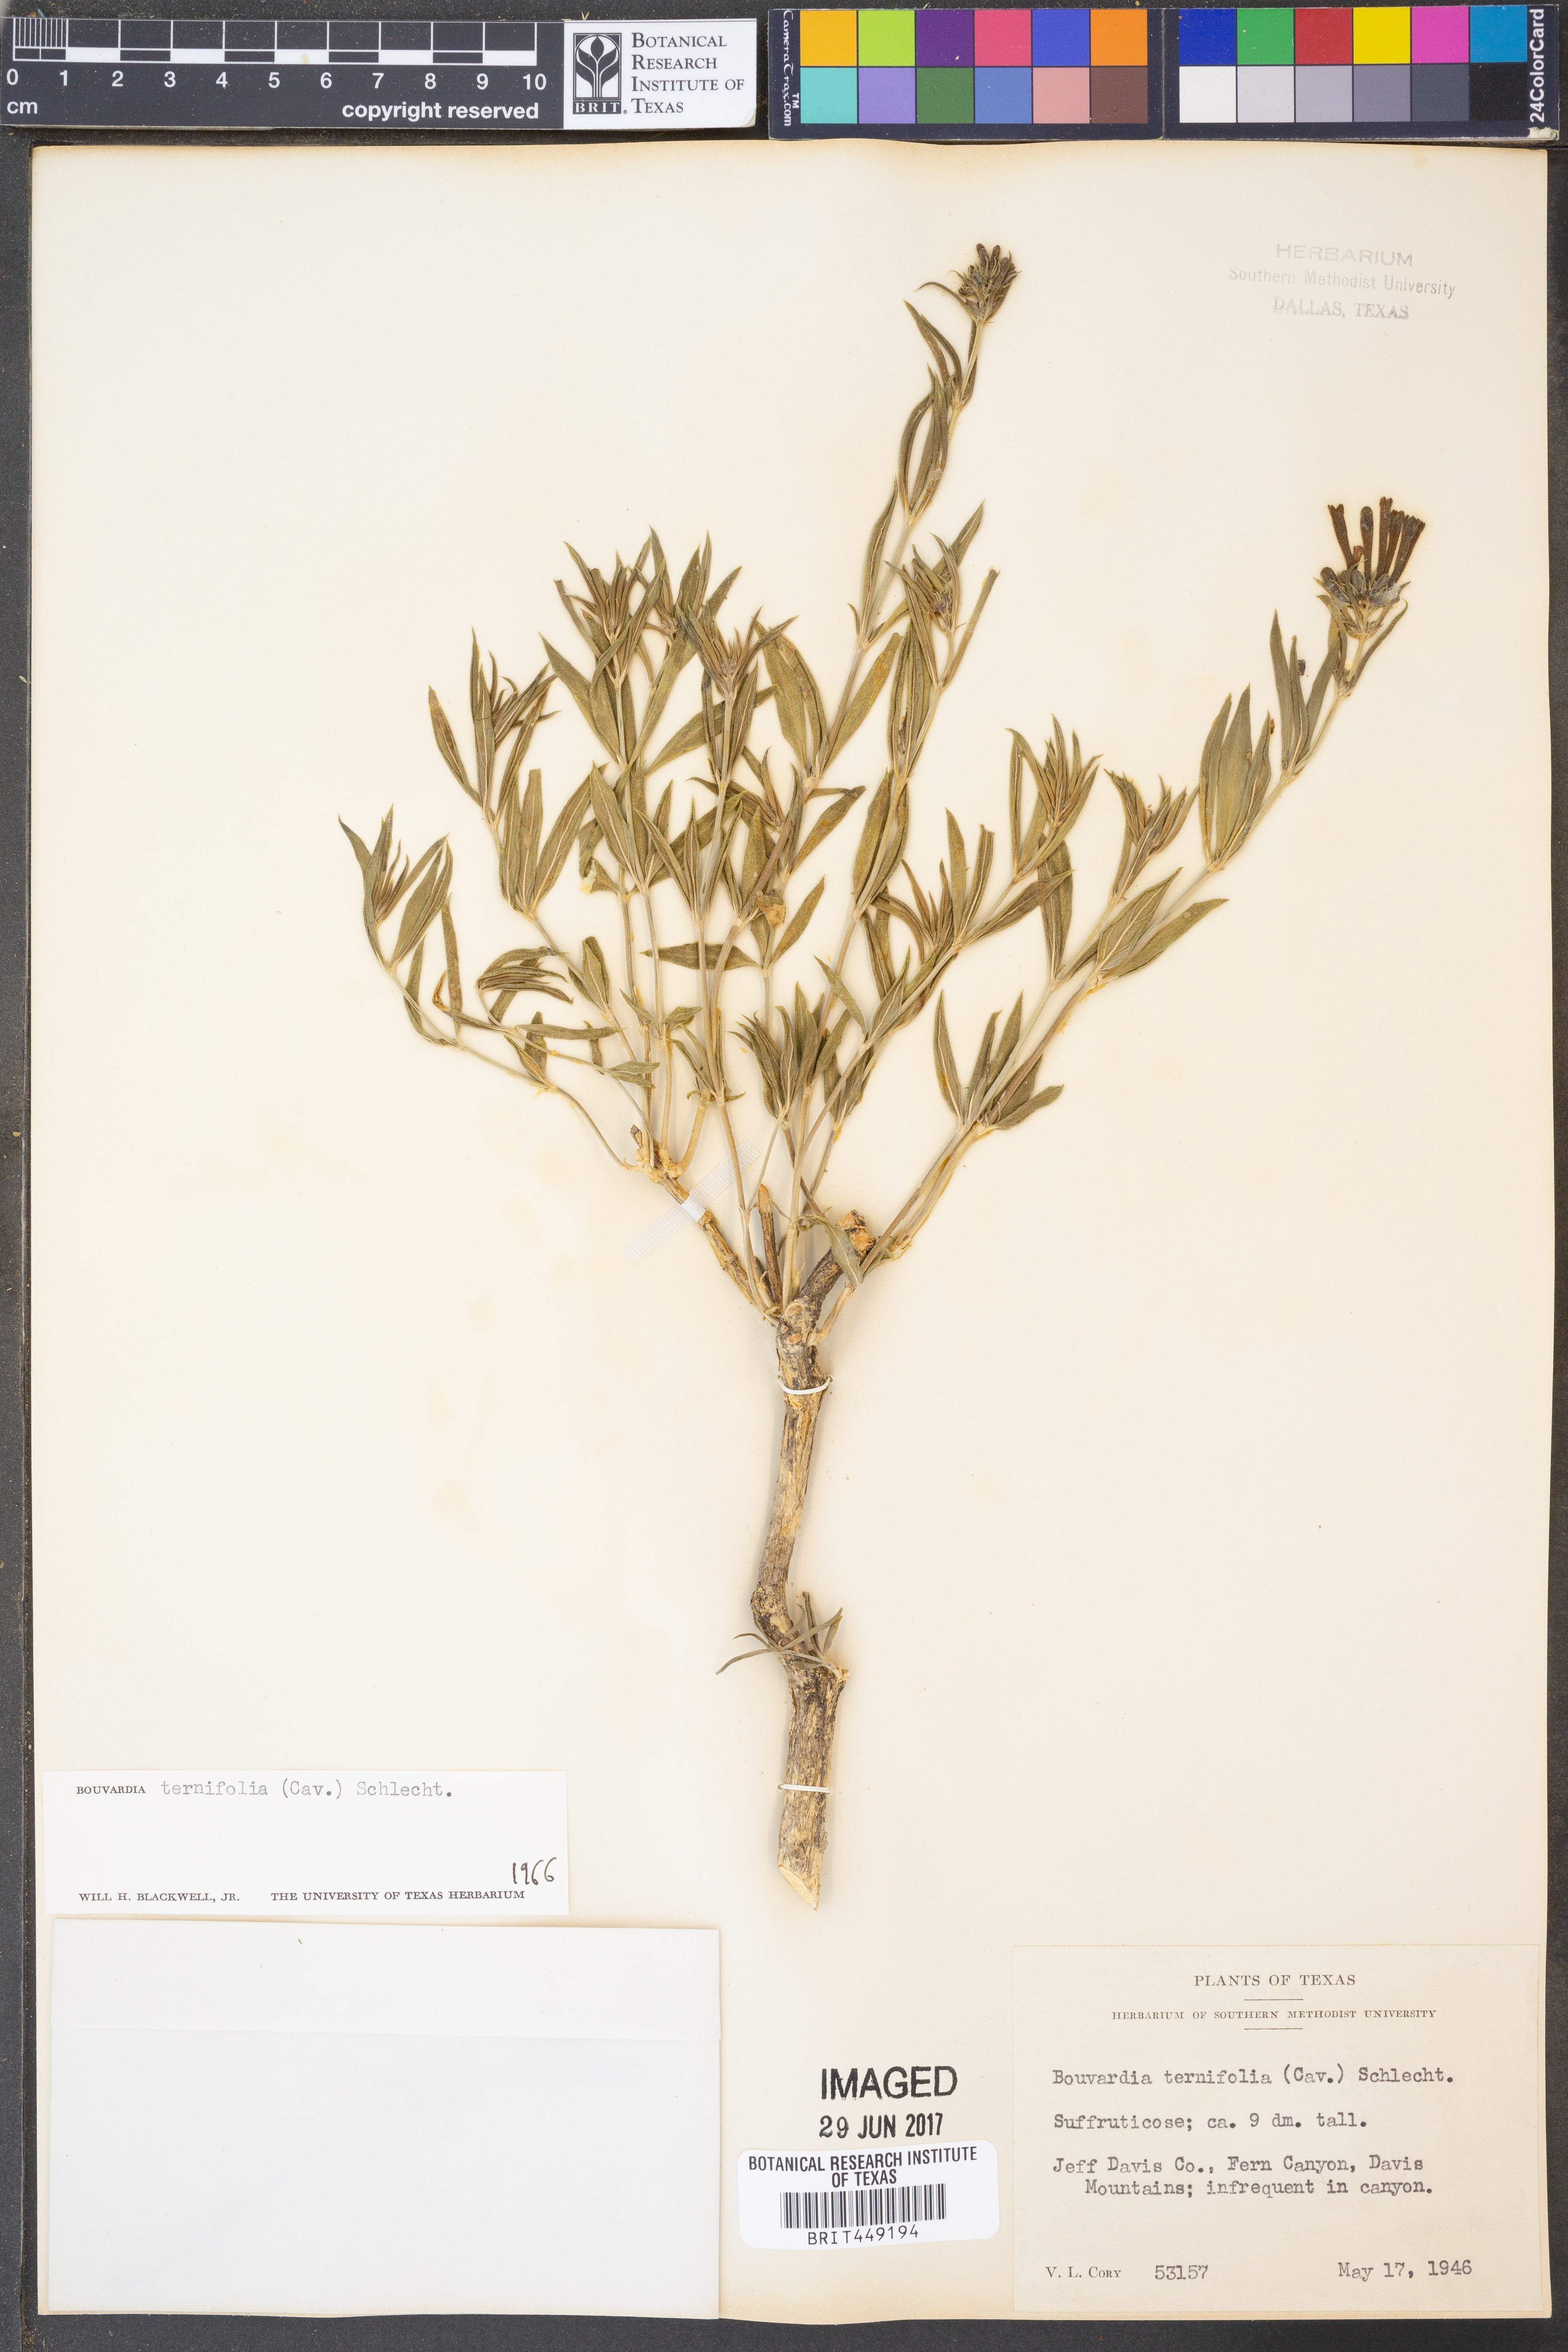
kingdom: Plantae
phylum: Tracheophyta
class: Magnoliopsida
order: Gentianales
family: Rubiaceae
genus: Bouvardia
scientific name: Bouvardia ternifolia
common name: Scarlet bouvardia
